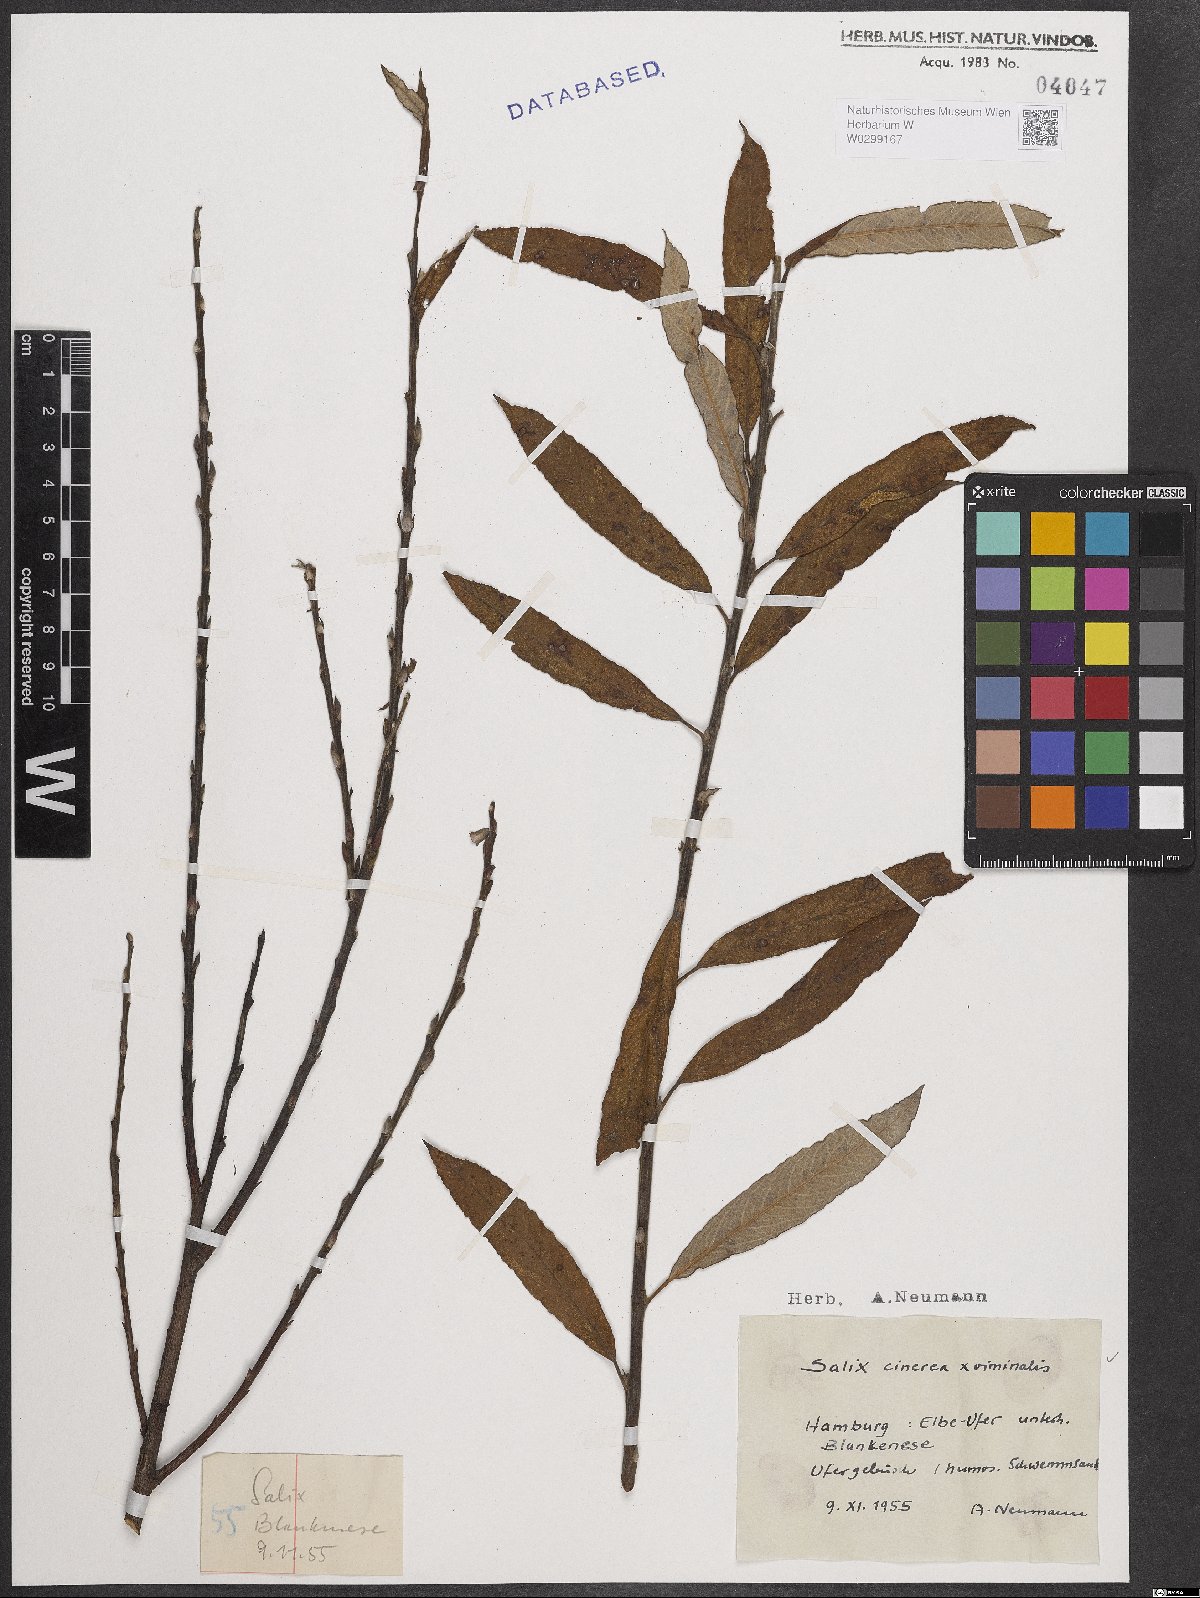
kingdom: Plantae
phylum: Tracheophyta
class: Magnoliopsida
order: Malpighiales
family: Salicaceae
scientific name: Salicaceae
